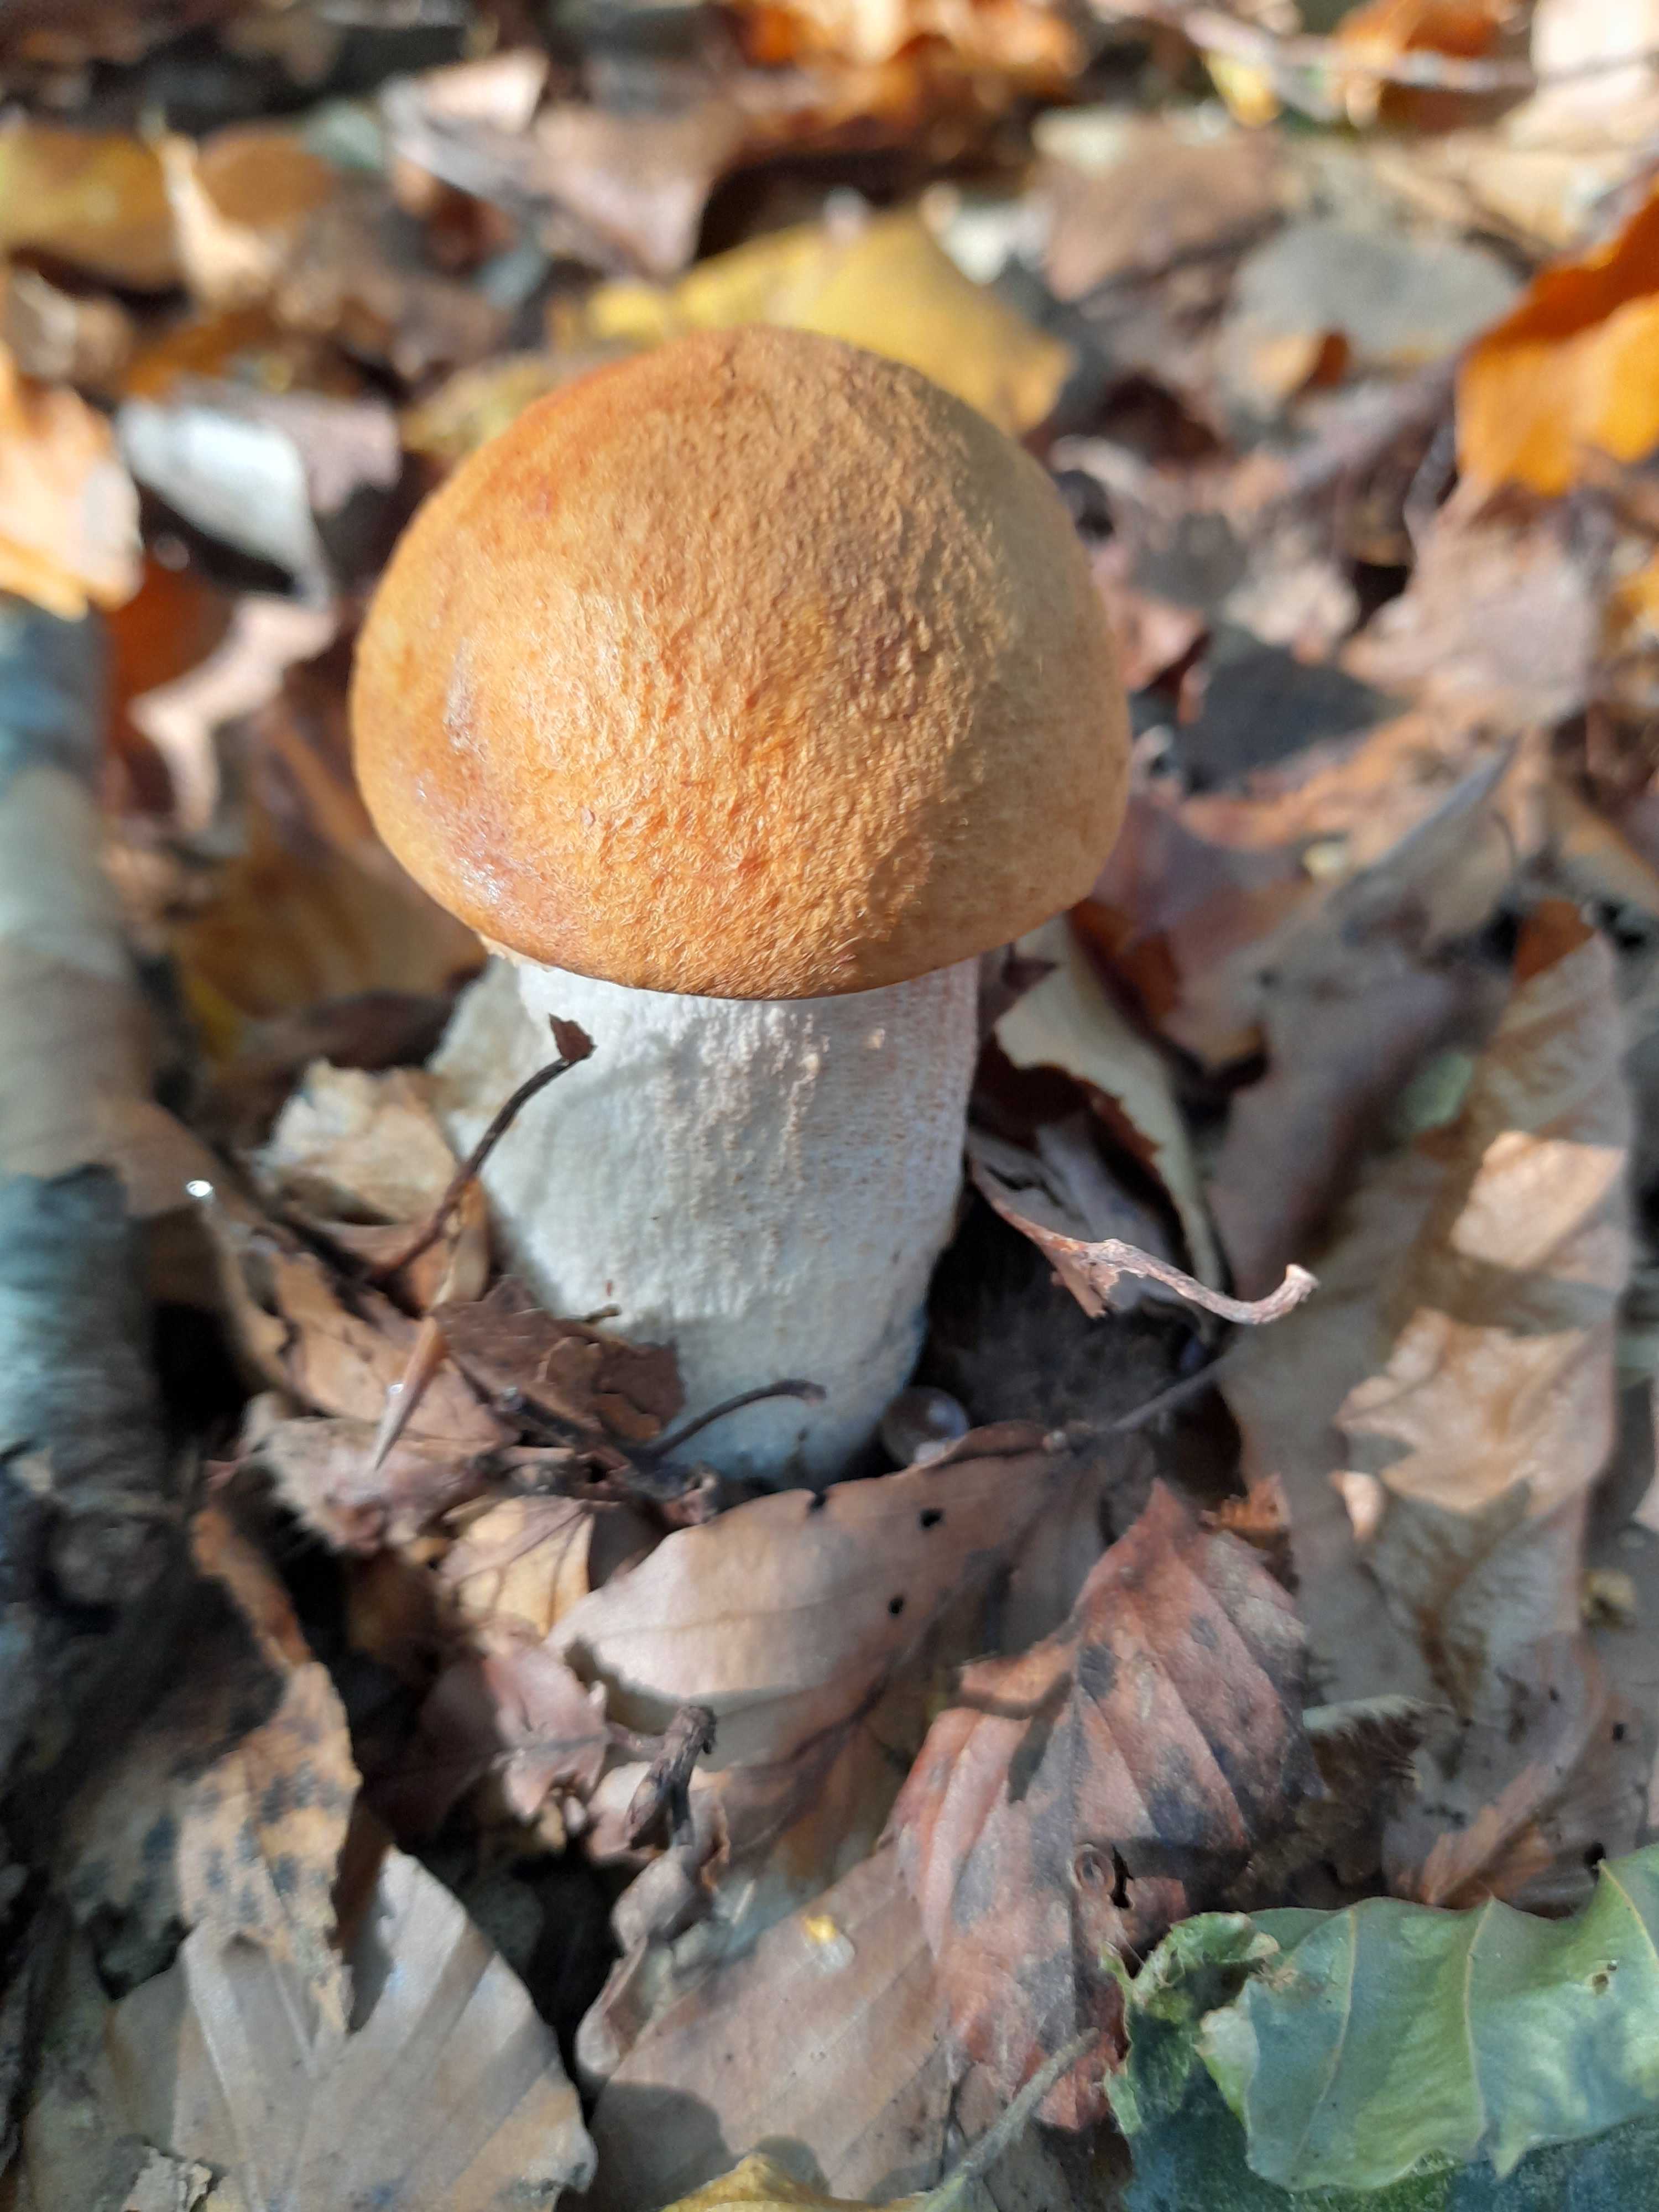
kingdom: Fungi
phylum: Basidiomycota
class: Agaricomycetes
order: Boletales
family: Boletaceae
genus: Leccinum
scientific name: Leccinum albostipitatum
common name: aspe-skælrørhat
